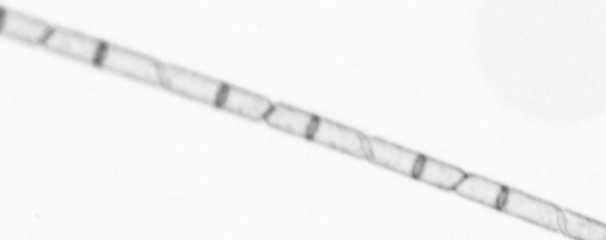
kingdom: Chromista
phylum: Ochrophyta
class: Bacillariophyceae
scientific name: Bacillariophyceae
